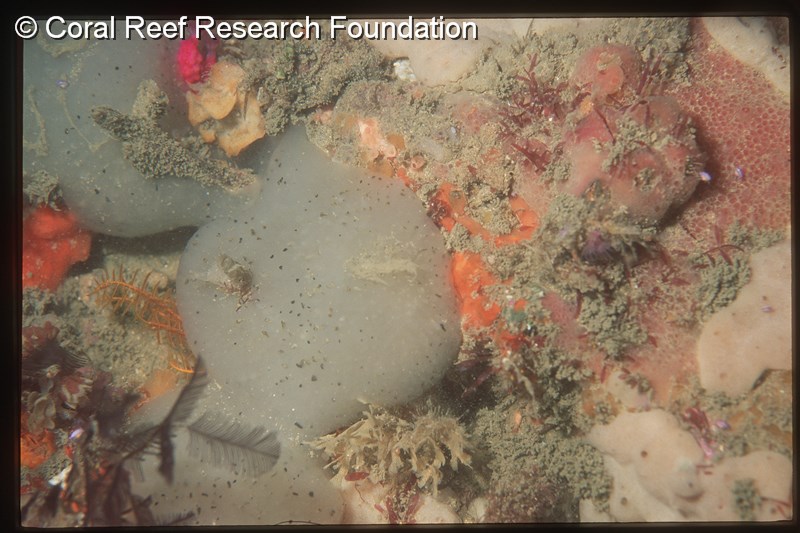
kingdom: Animalia
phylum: Chordata
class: Ascidiacea
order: Aplousobranchia
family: Pseudodistomidae
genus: Pseudodistoma
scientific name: Pseudodistoma
